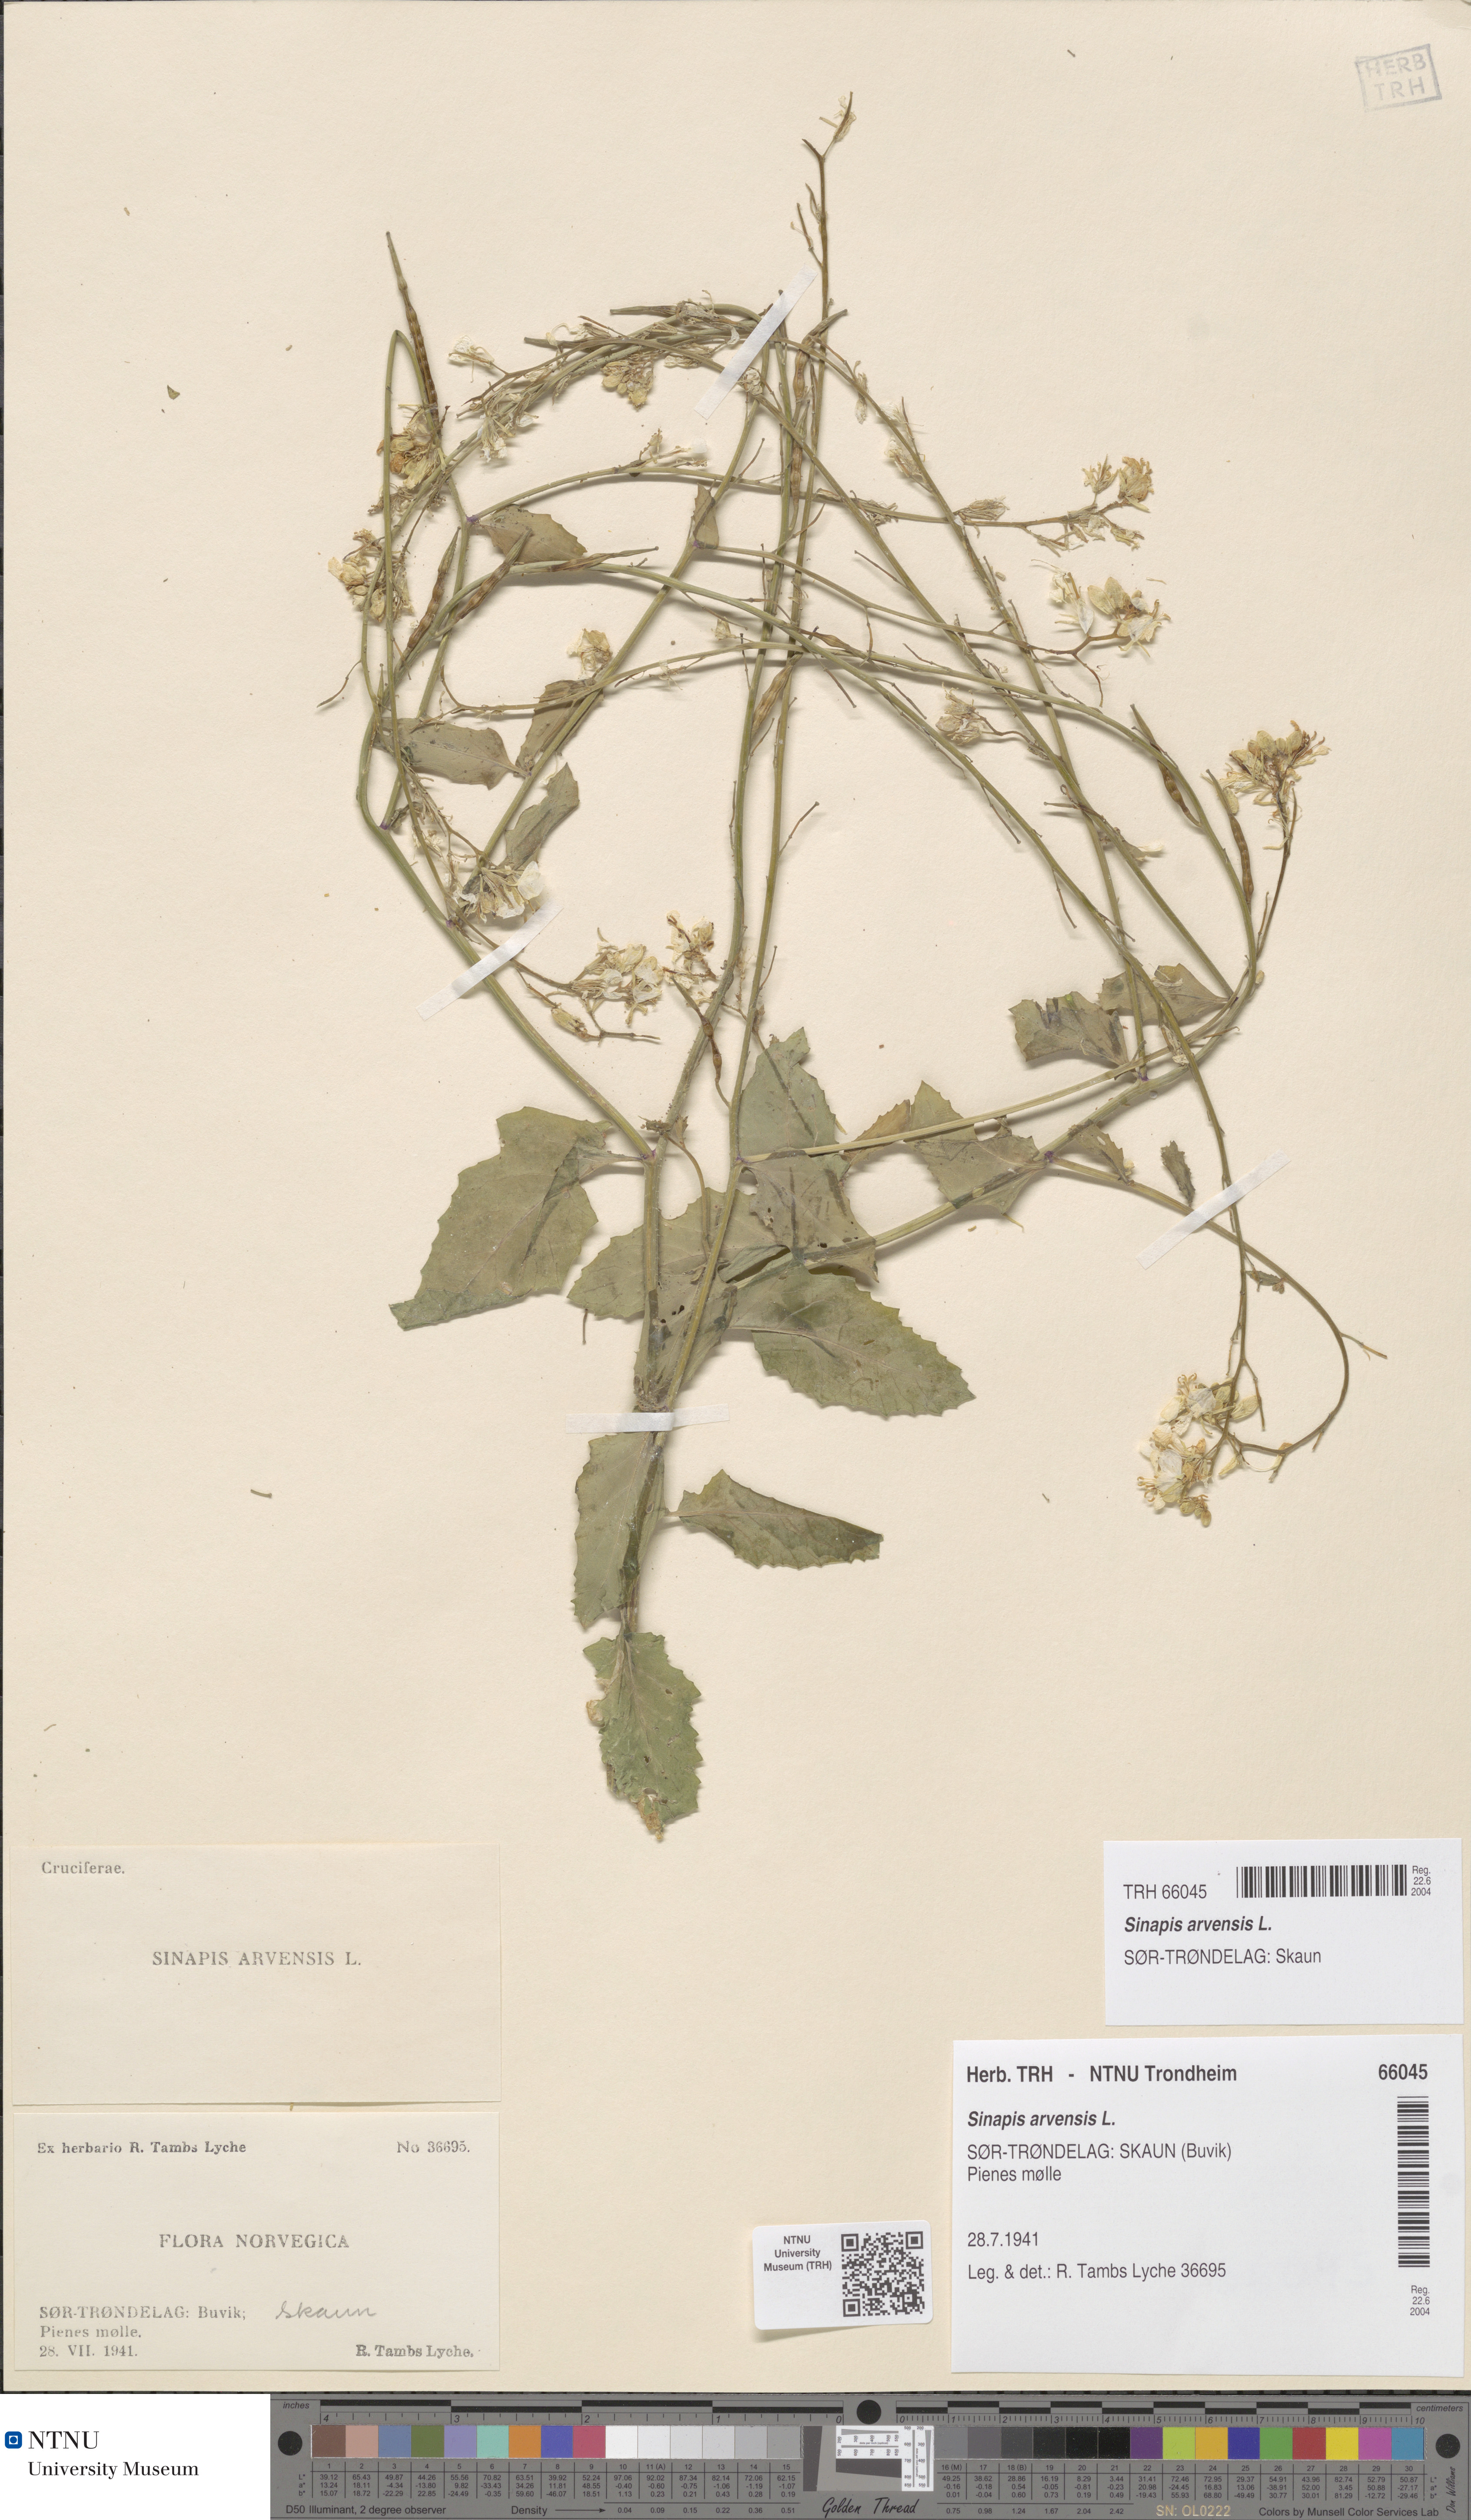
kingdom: Plantae
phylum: Tracheophyta
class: Magnoliopsida
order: Brassicales
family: Brassicaceae
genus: Sinapis
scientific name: Sinapis arvensis
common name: Charlock
